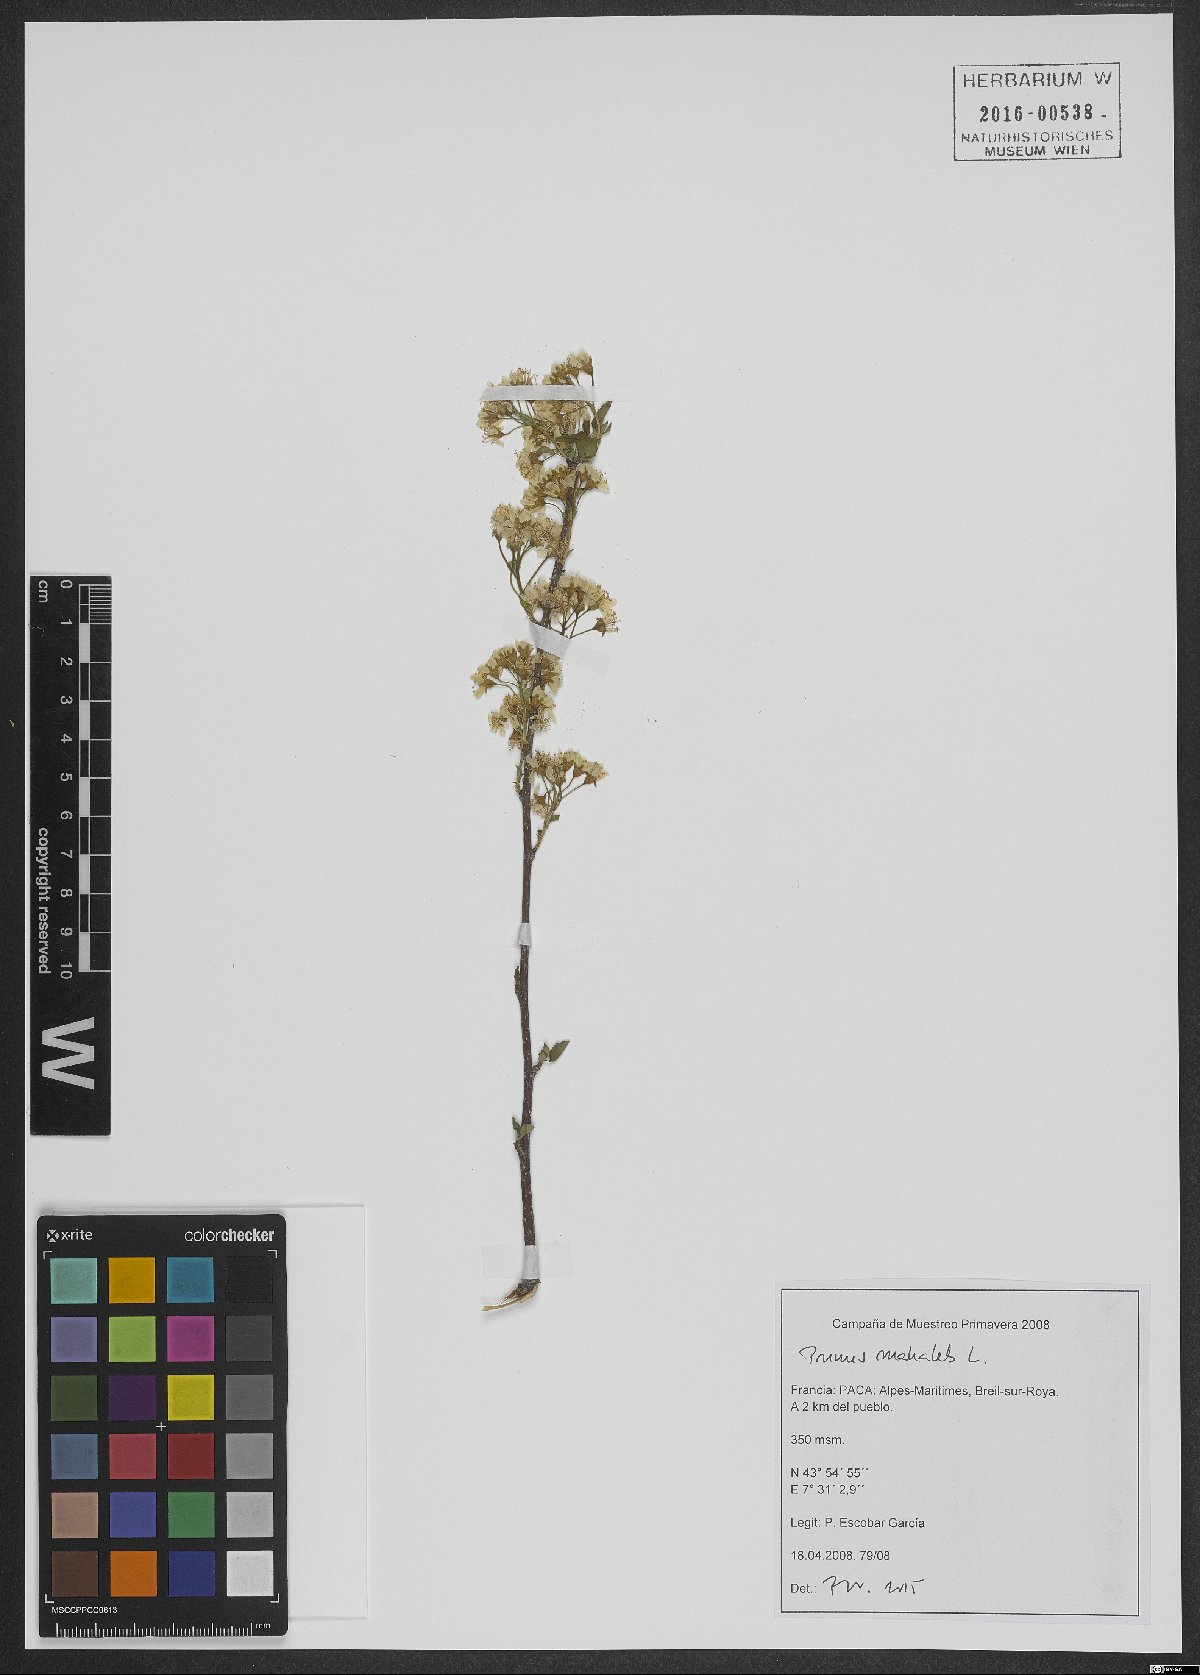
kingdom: Plantae
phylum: Tracheophyta
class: Magnoliopsida
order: Rosales
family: Rosaceae
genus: Prunus
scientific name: Prunus mahaleb
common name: Mahaleb cherry
